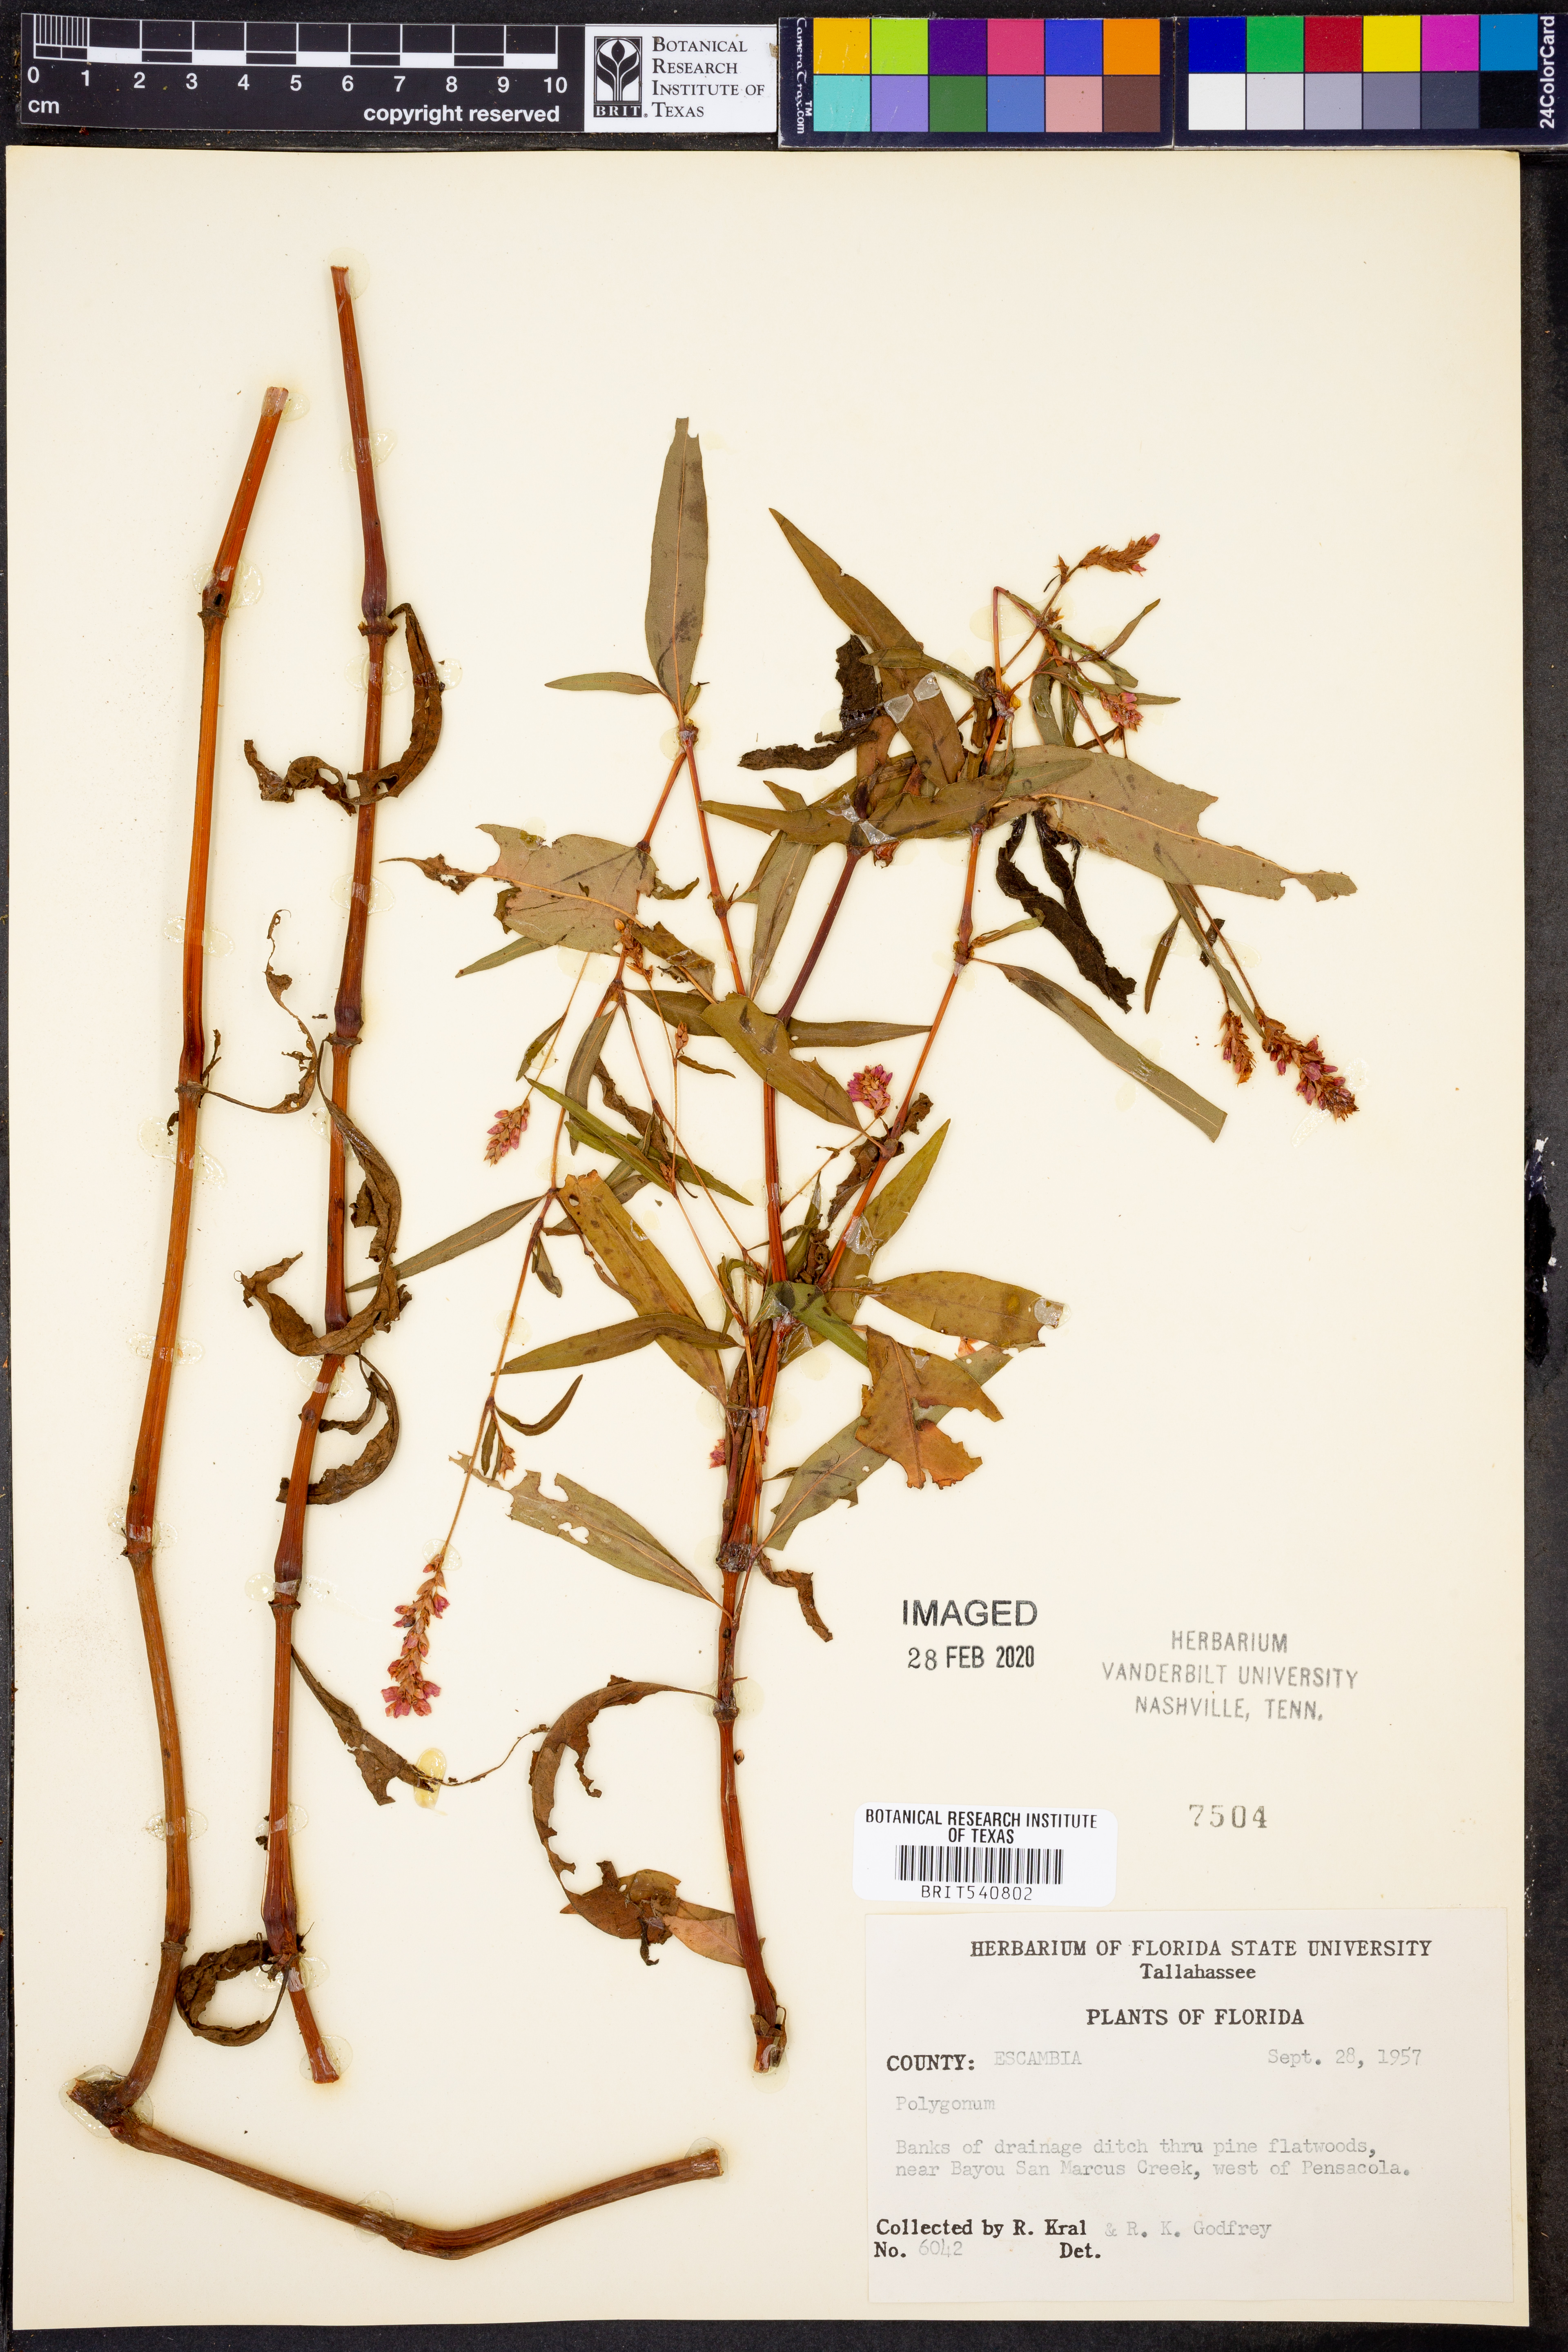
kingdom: Plantae
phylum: Tracheophyta
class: Magnoliopsida
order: Caryophyllales
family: Polygonaceae
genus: Polygonum
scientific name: Polygonum
